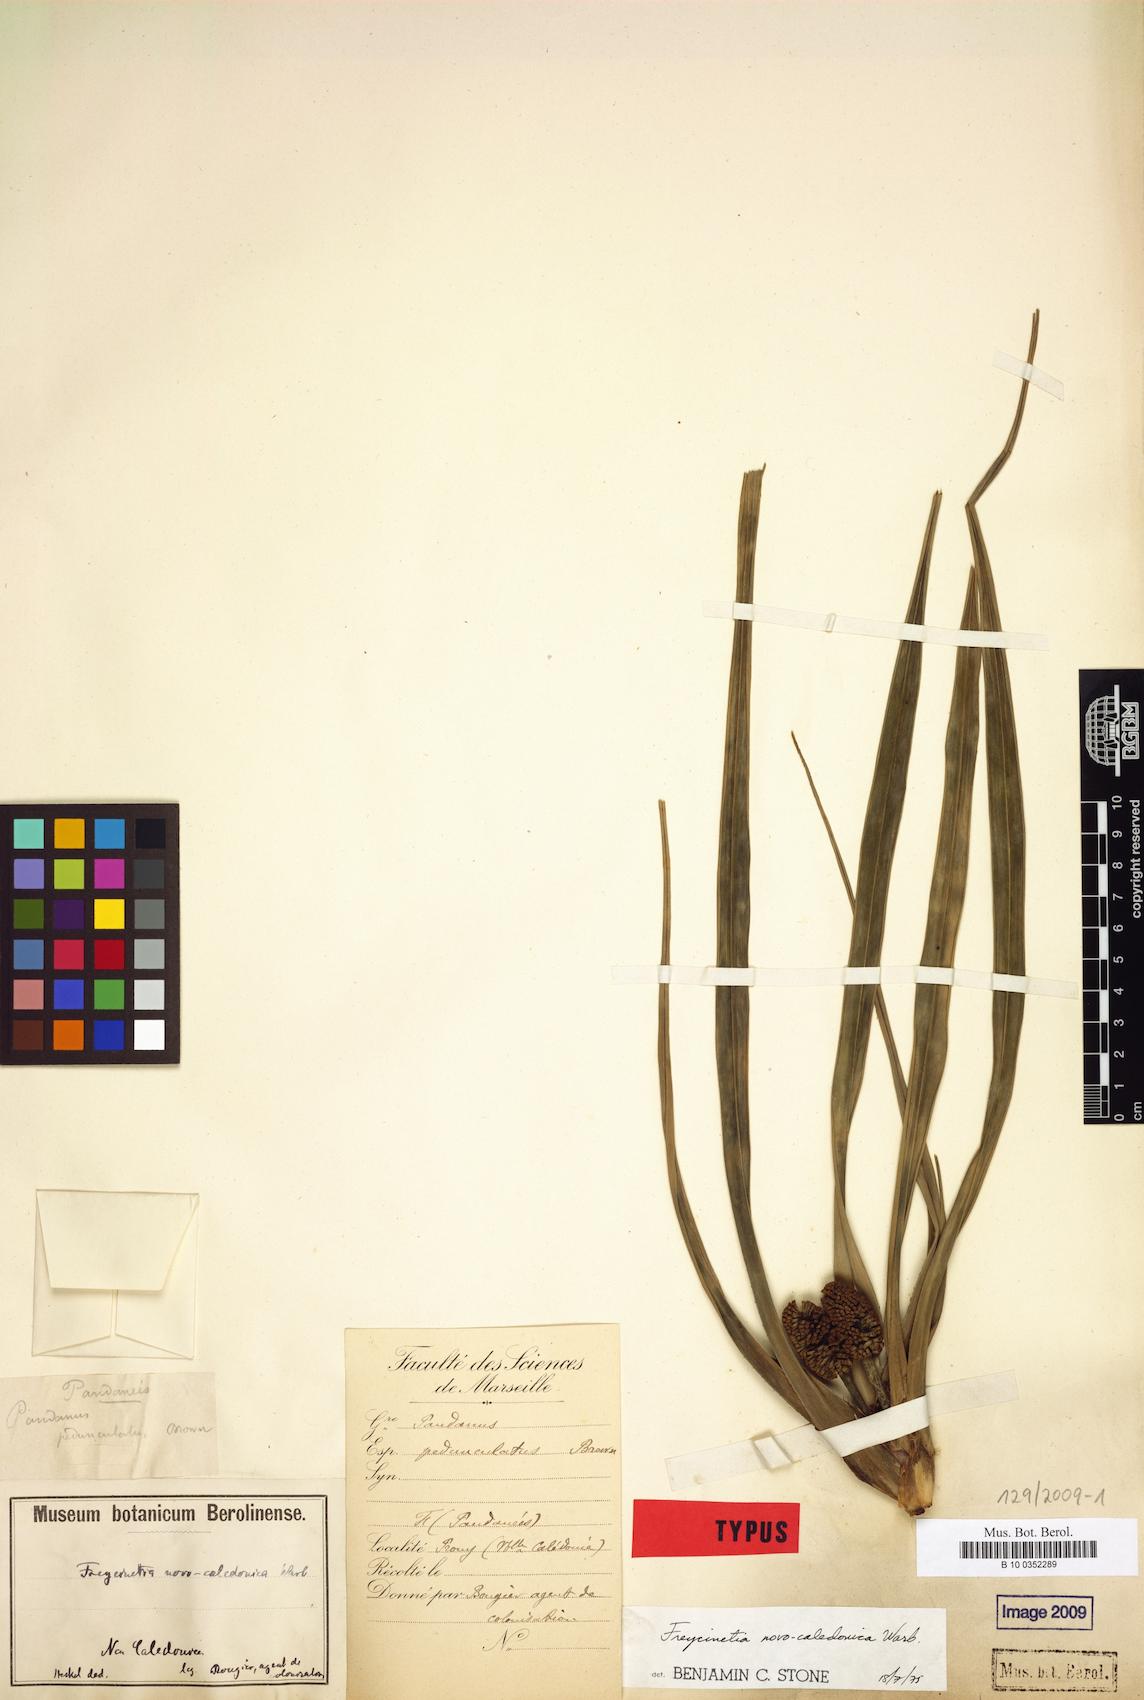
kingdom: Plantae
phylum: Tracheophyta
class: Liliopsida
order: Pandanales
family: Pandanaceae
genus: Freycinetia
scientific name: Freycinetia novocaledonica
